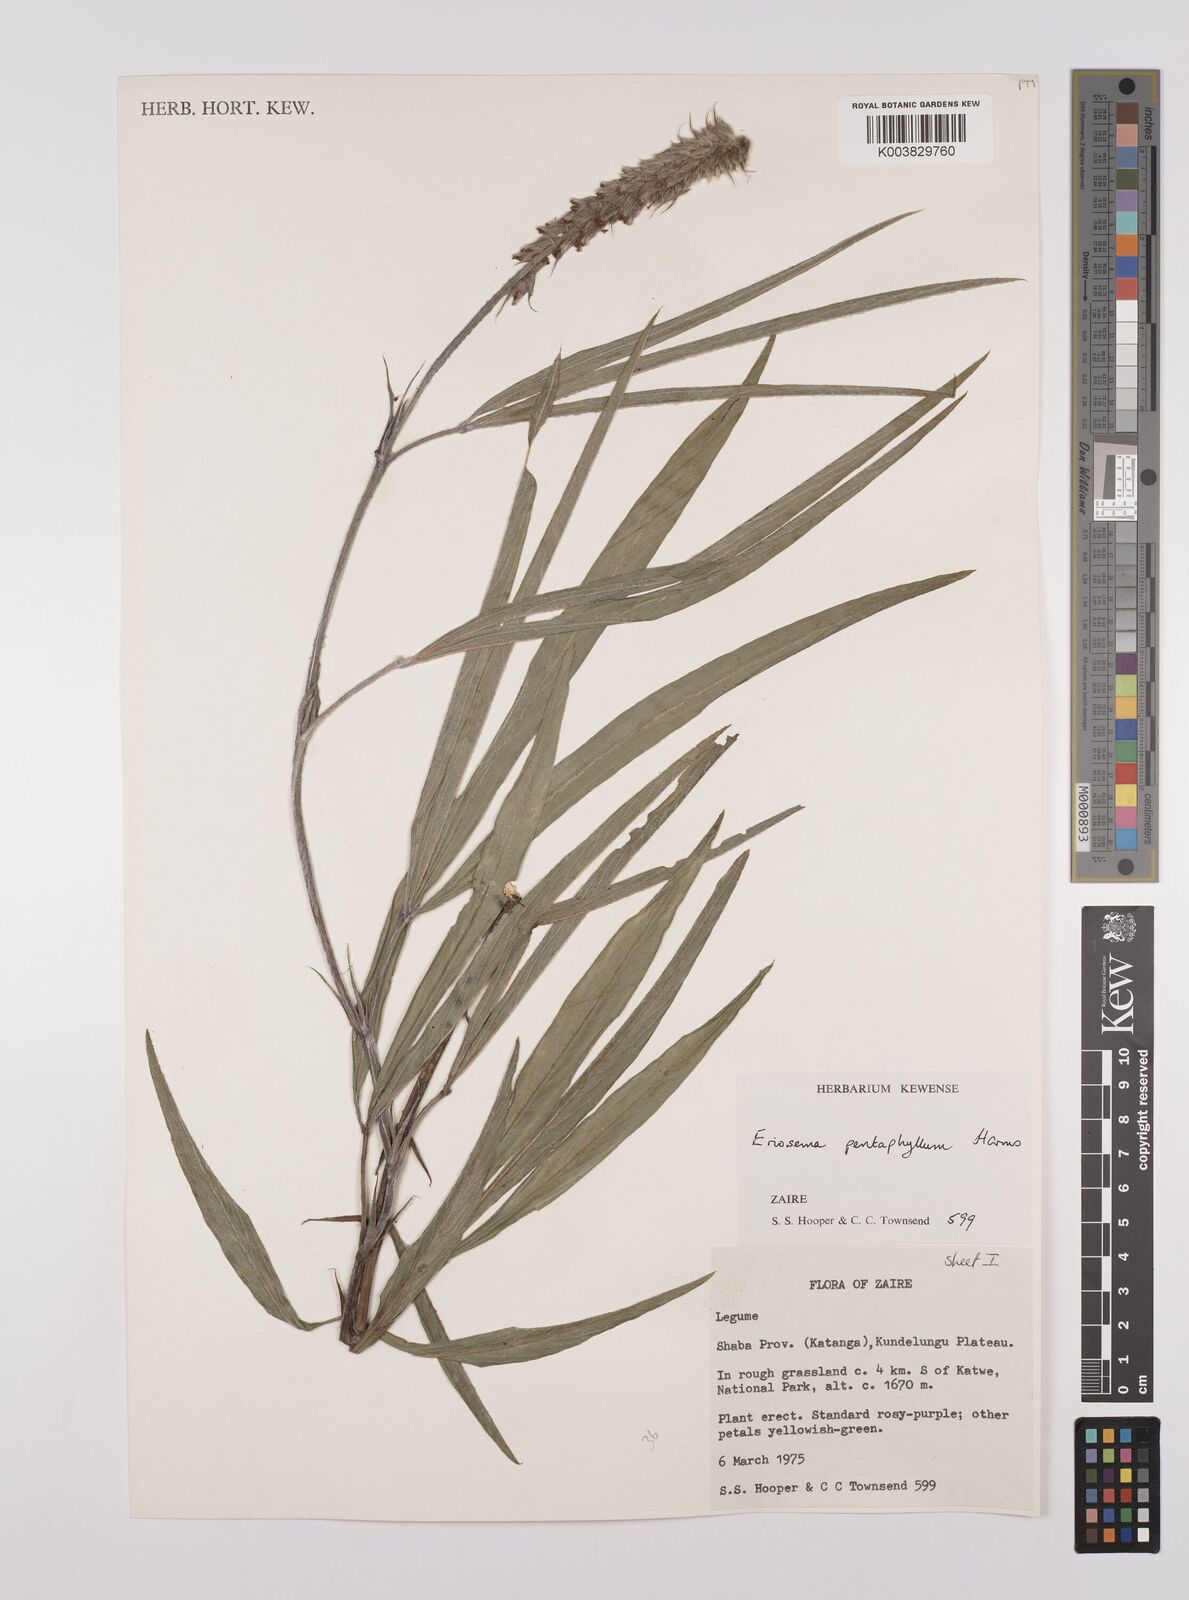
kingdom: Plantae
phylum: Tracheophyta
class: Magnoliopsida
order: Fabales
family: Fabaceae
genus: Eriosema
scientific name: Eriosema pentaphyllum
